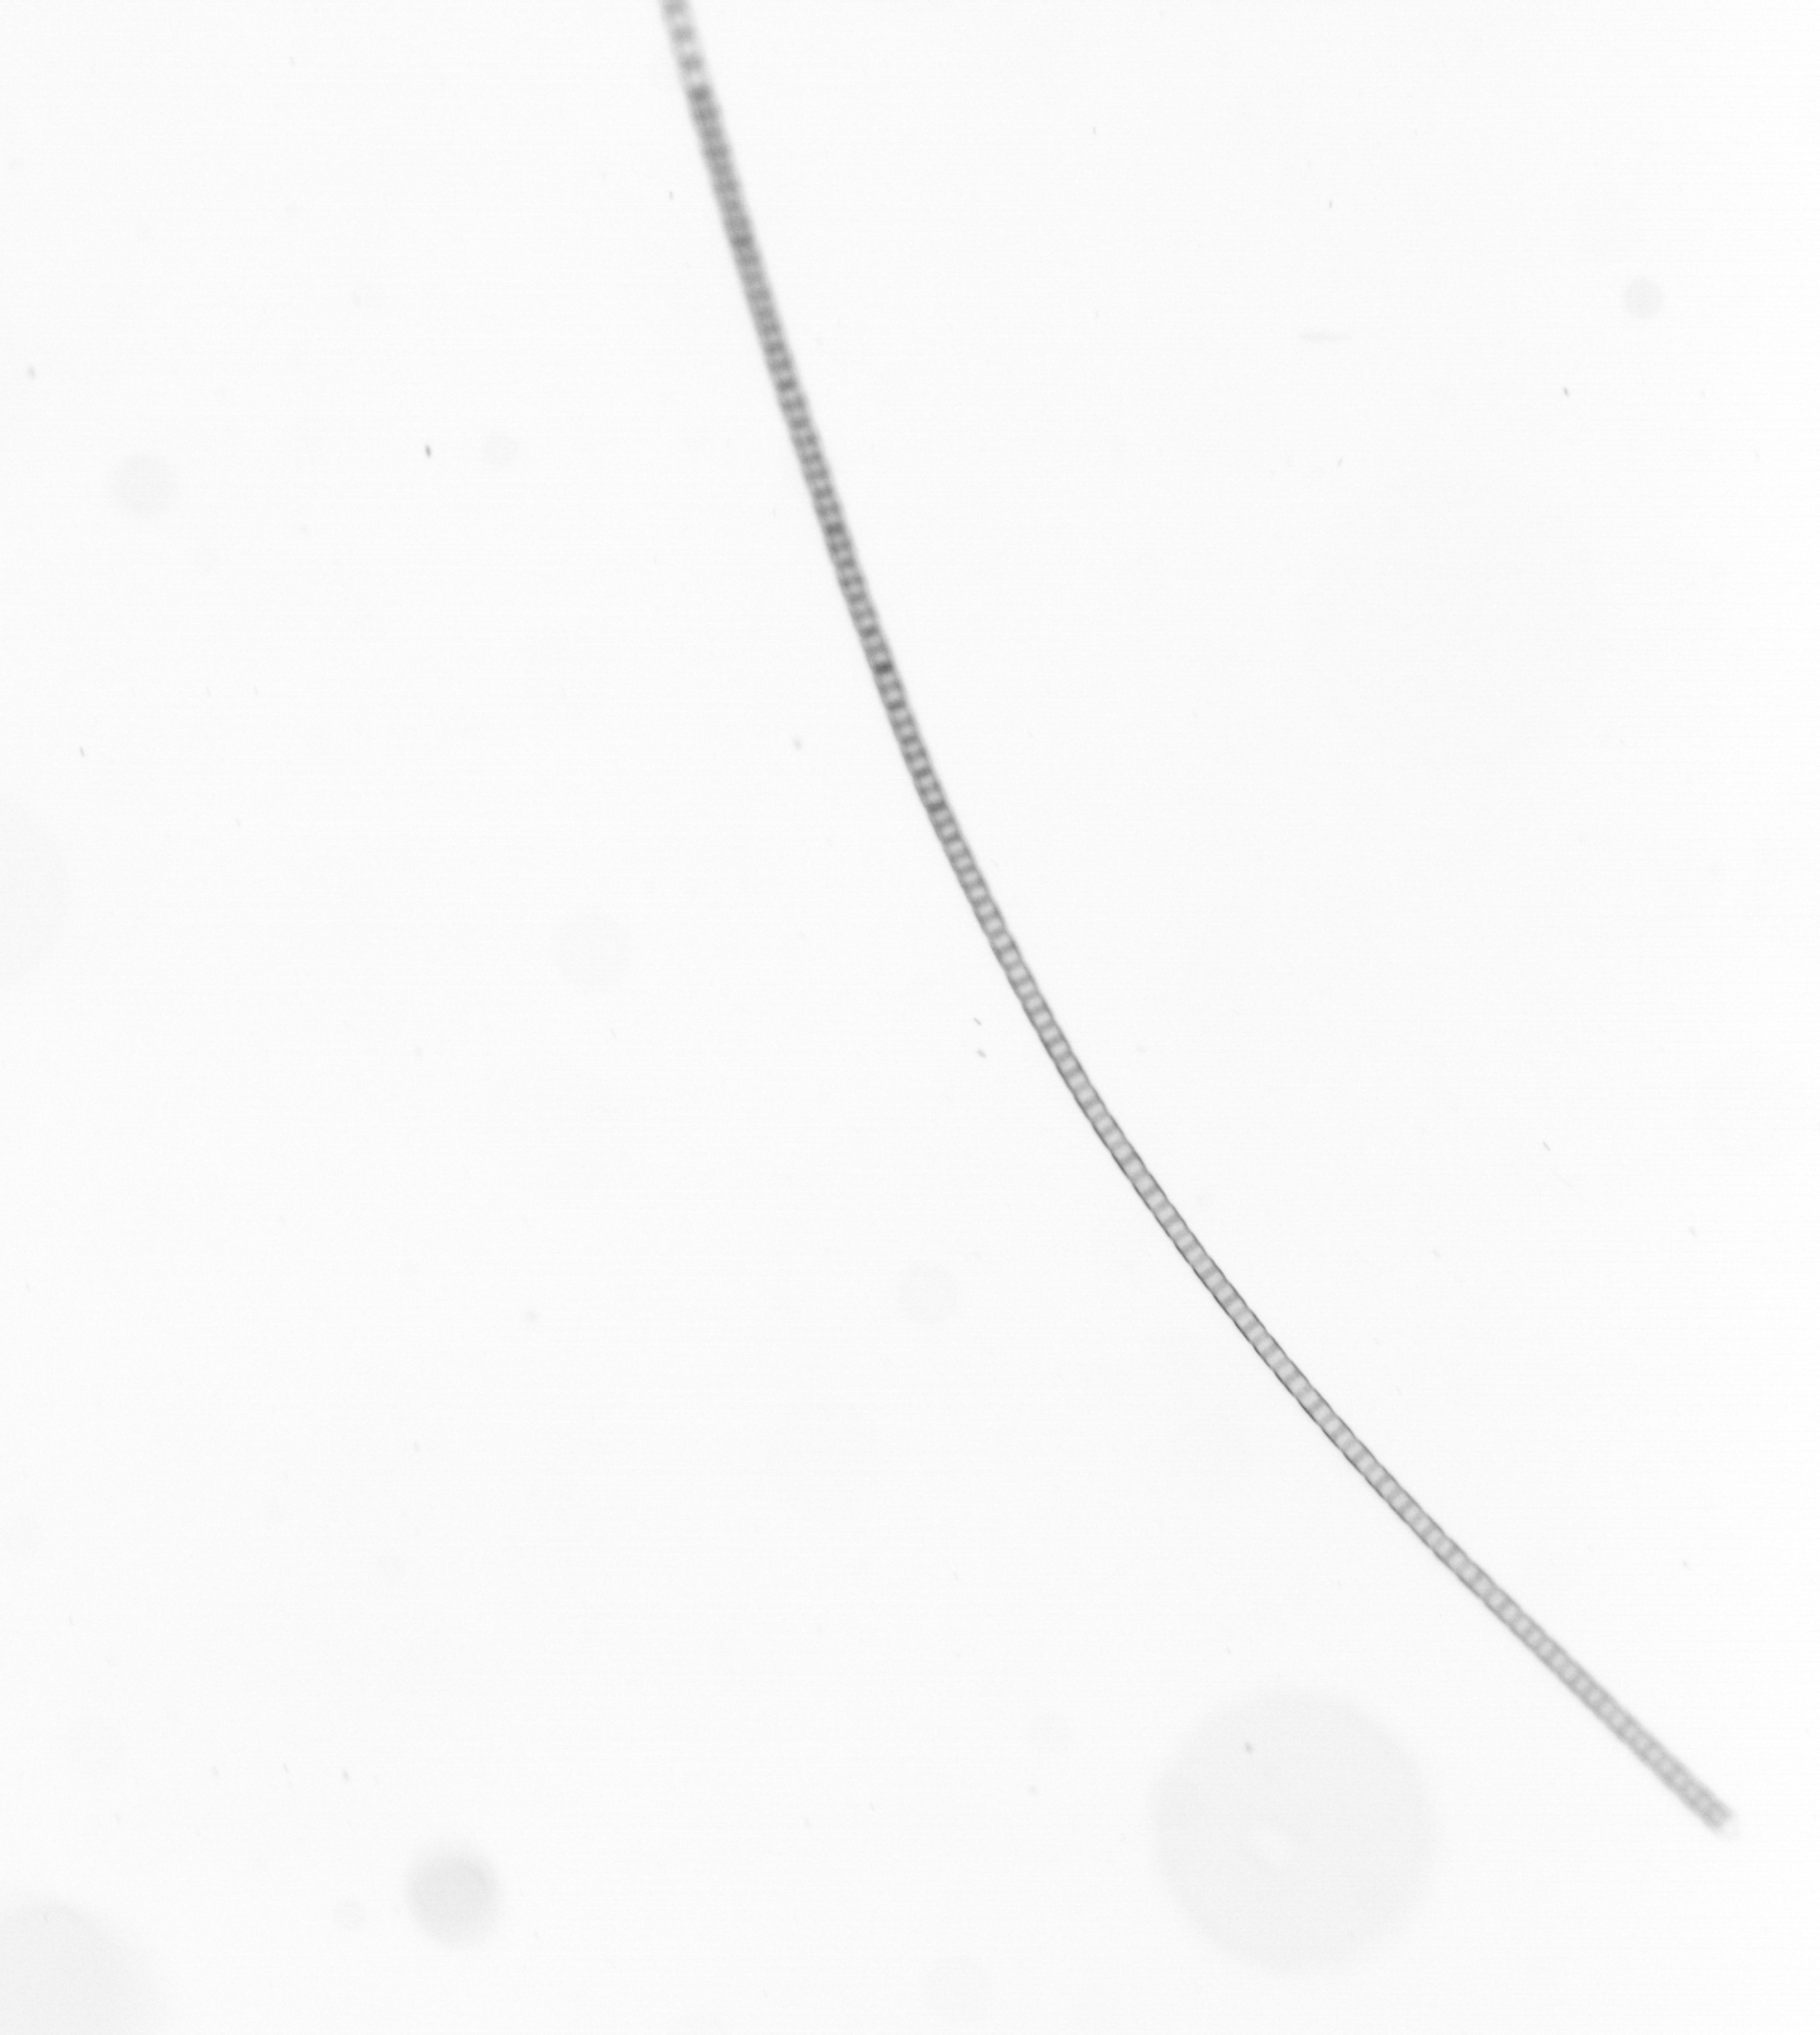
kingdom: Chromista
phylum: Ochrophyta
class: Bacillariophyceae
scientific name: Bacillariophyceae
